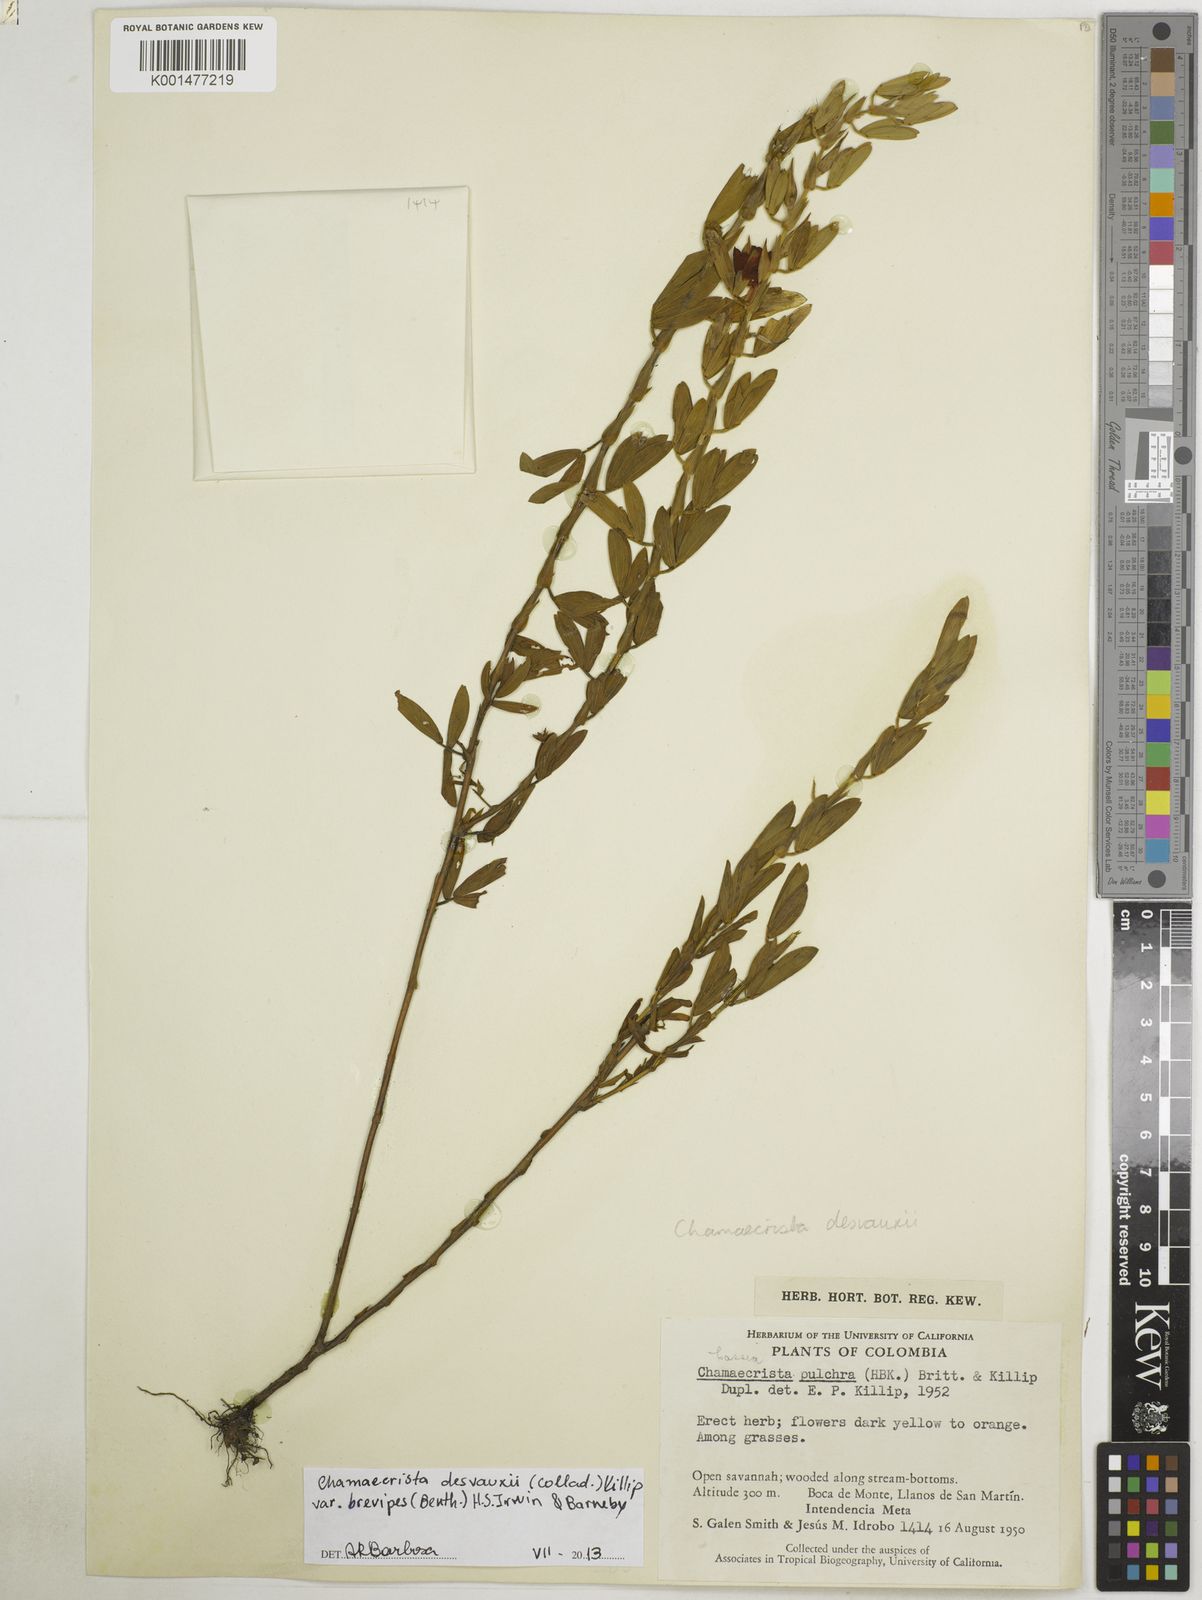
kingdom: Plantae
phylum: Tracheophyta
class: Magnoliopsida
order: Fabales
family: Fabaceae
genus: Chamaecrista
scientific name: Chamaecrista desvauxii
